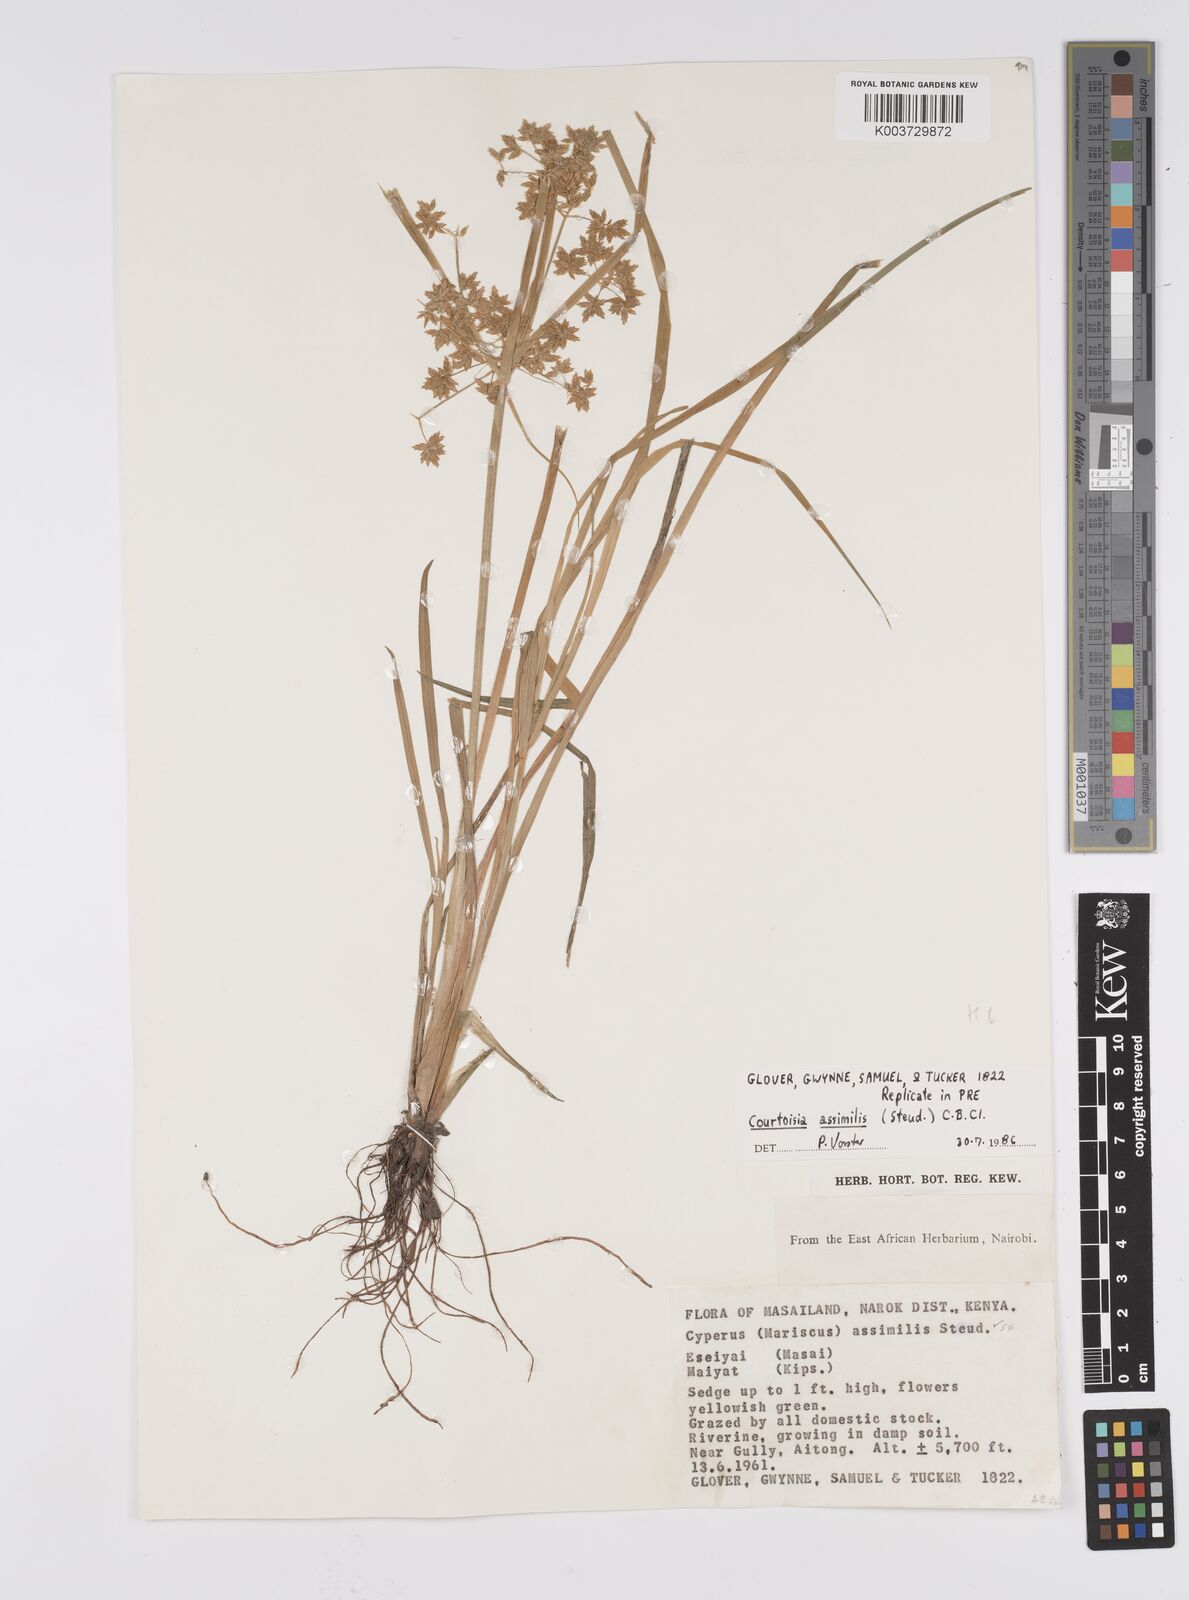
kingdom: Plantae
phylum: Tracheophyta
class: Liliopsida
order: Poales
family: Cyperaceae
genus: Cyperus
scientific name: Cyperus assimilis
